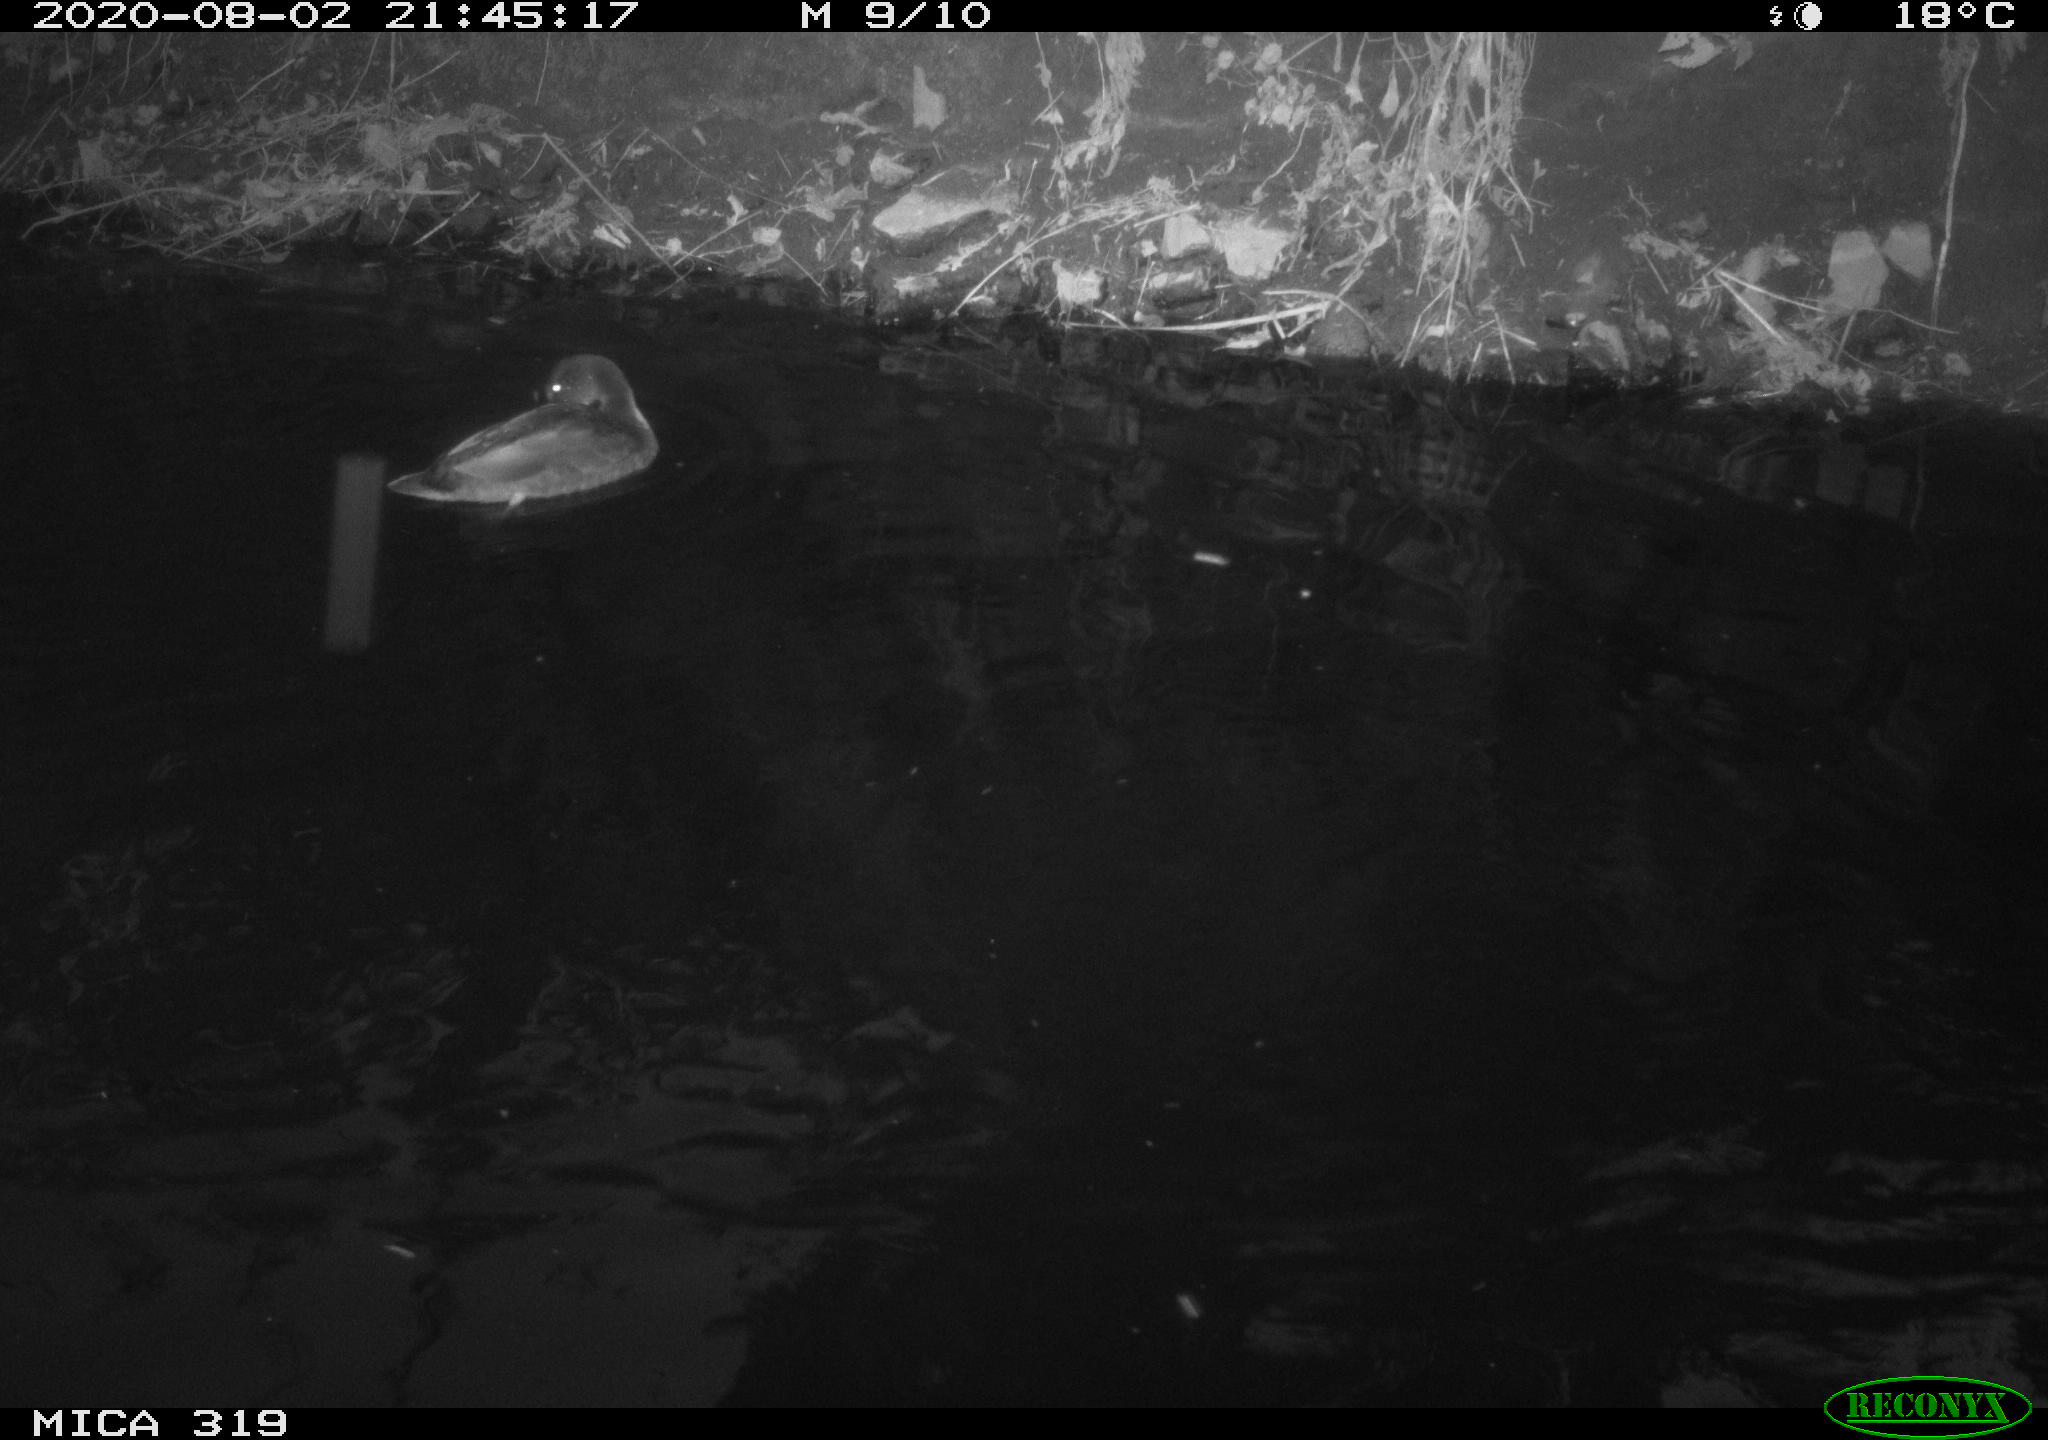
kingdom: Animalia
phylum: Chordata
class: Aves
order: Anseriformes
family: Anatidae
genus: Anas
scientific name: Anas platyrhynchos
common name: Mallard
